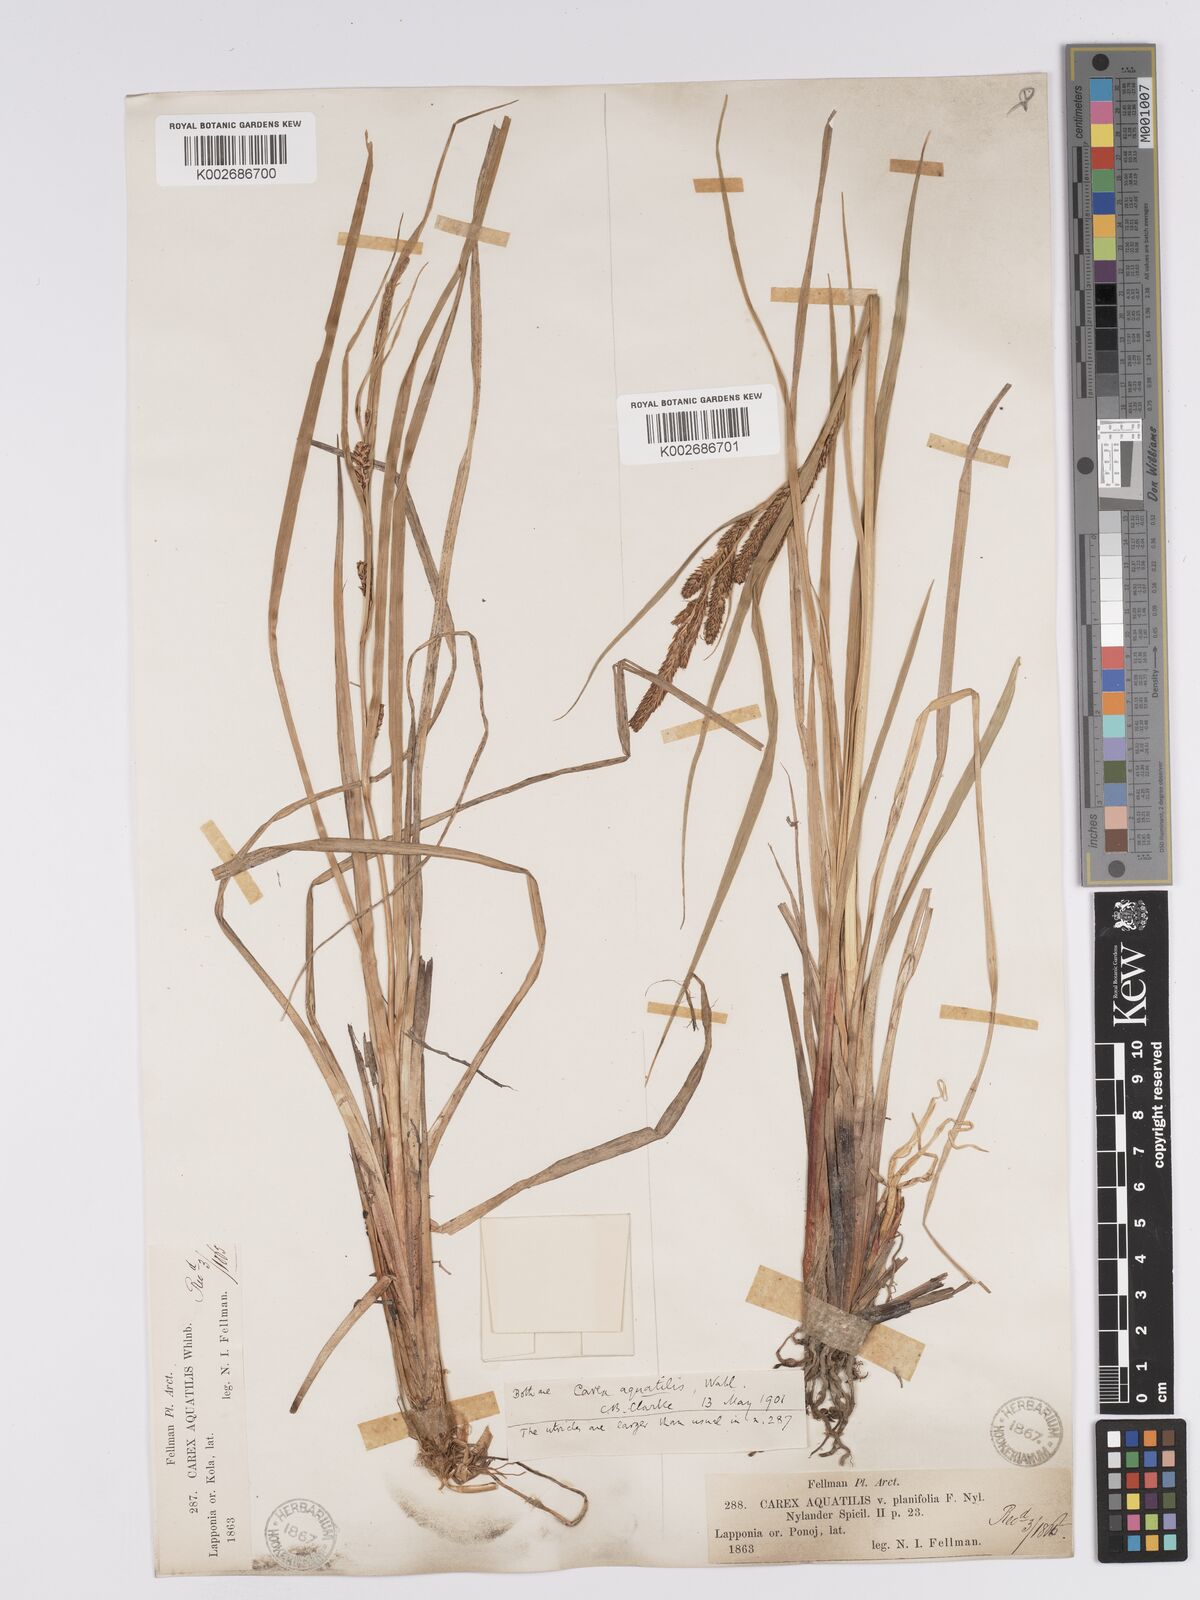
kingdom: Plantae
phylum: Tracheophyta
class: Liliopsida
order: Poales
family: Cyperaceae
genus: Carex
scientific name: Carex aquatilis
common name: Water sedge
